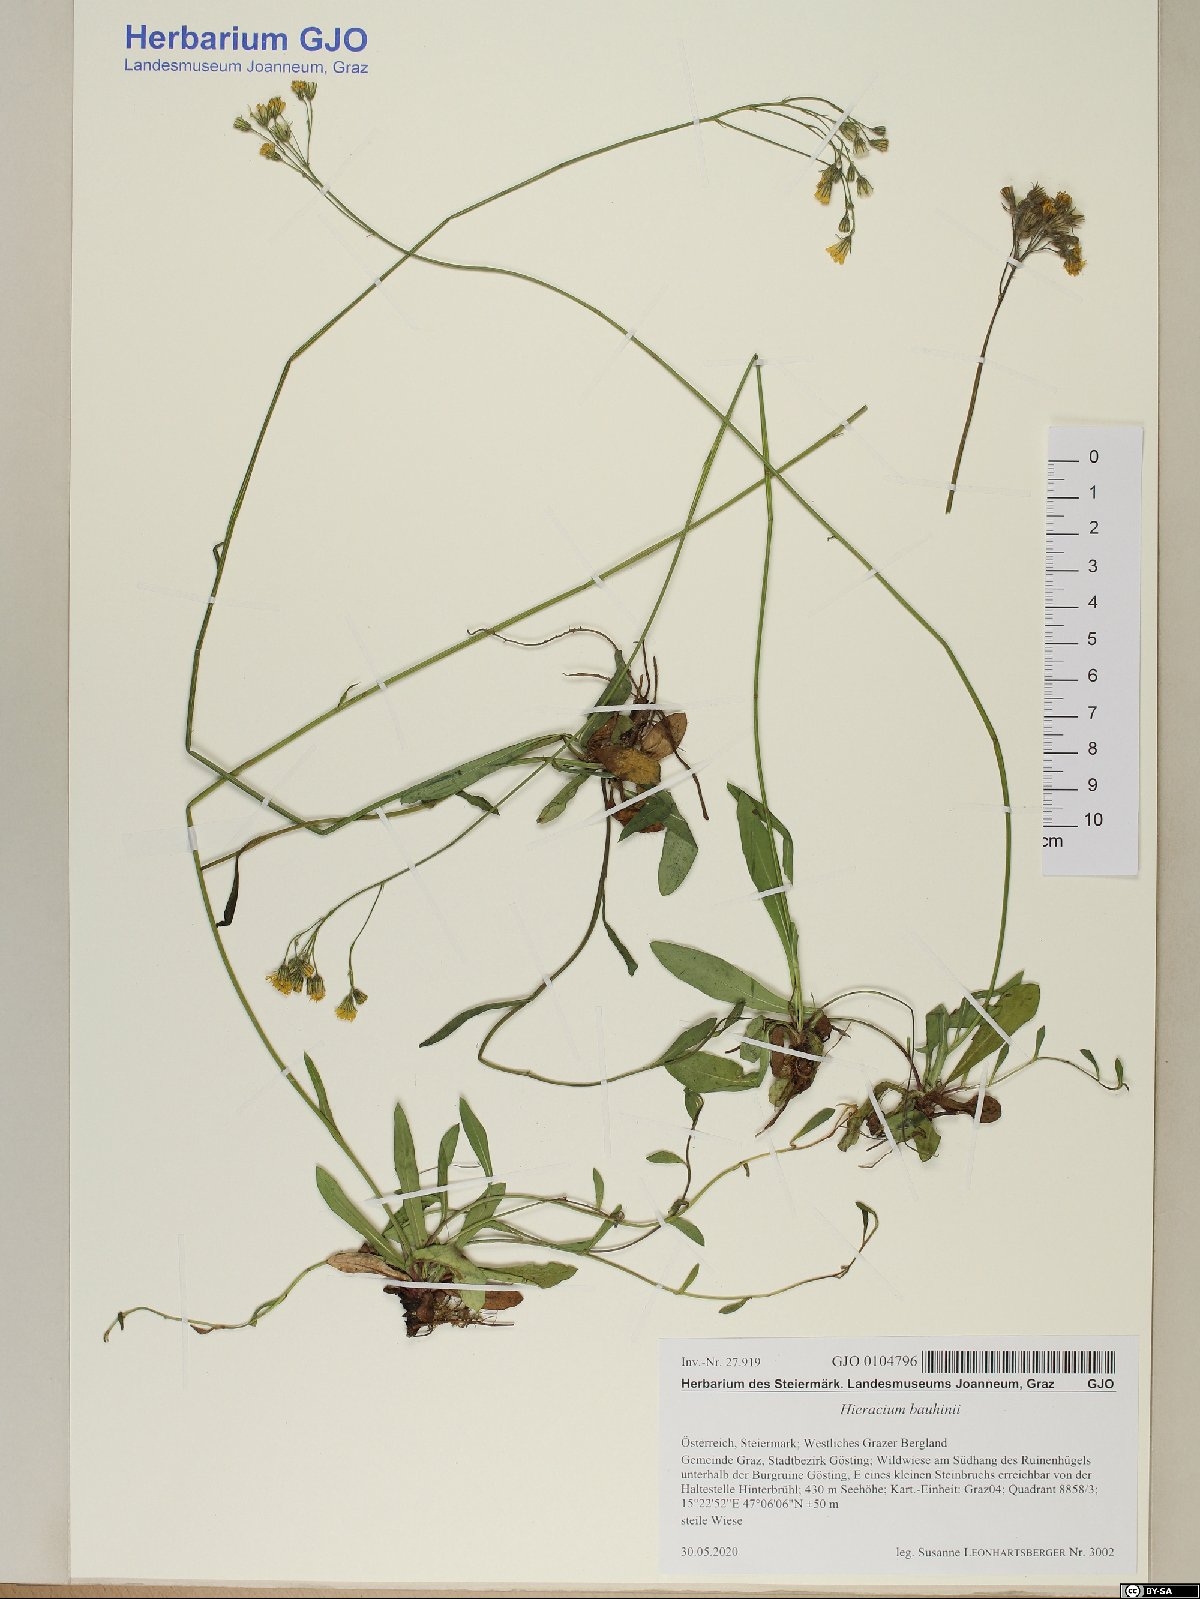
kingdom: Plantae
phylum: Tracheophyta
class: Magnoliopsida
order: Asterales
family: Asteraceae
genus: Pilosella
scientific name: Pilosella bauhini
